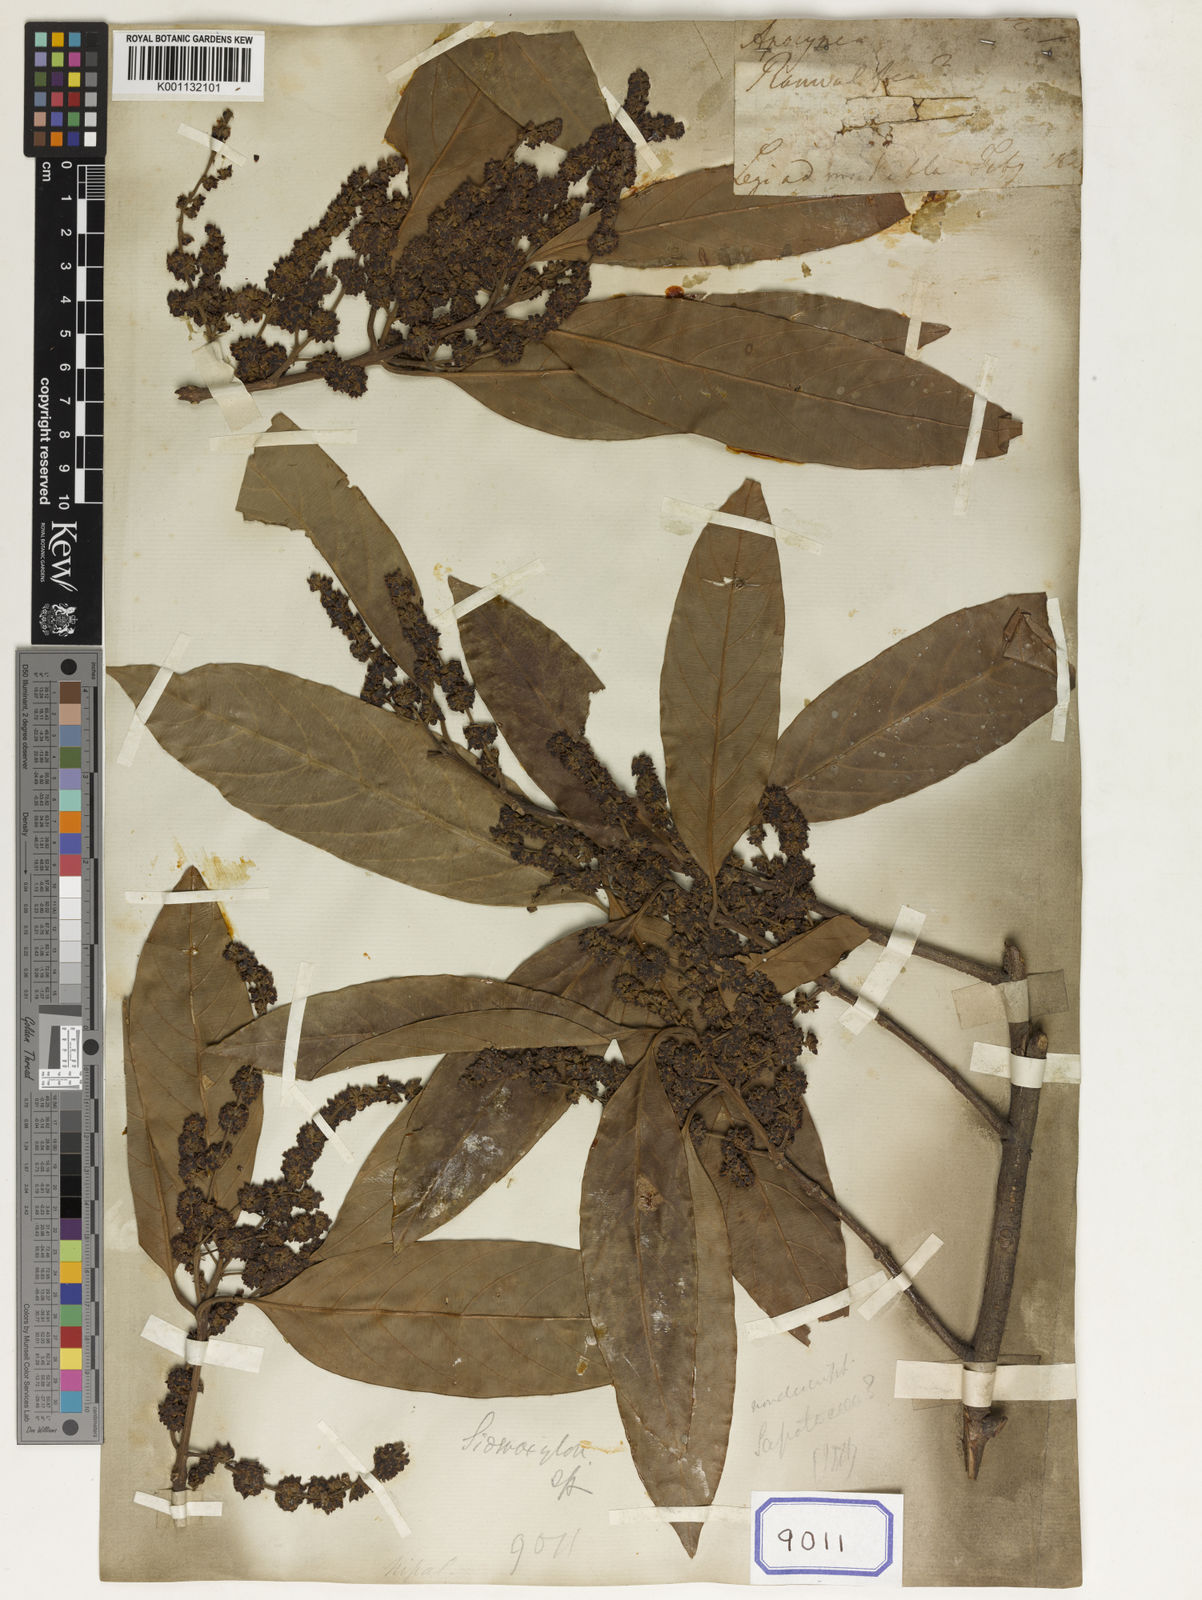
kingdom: Plantae
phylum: Tracheophyta
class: Magnoliopsida
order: Celastrales
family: Celastraceae
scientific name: Celastraceae
